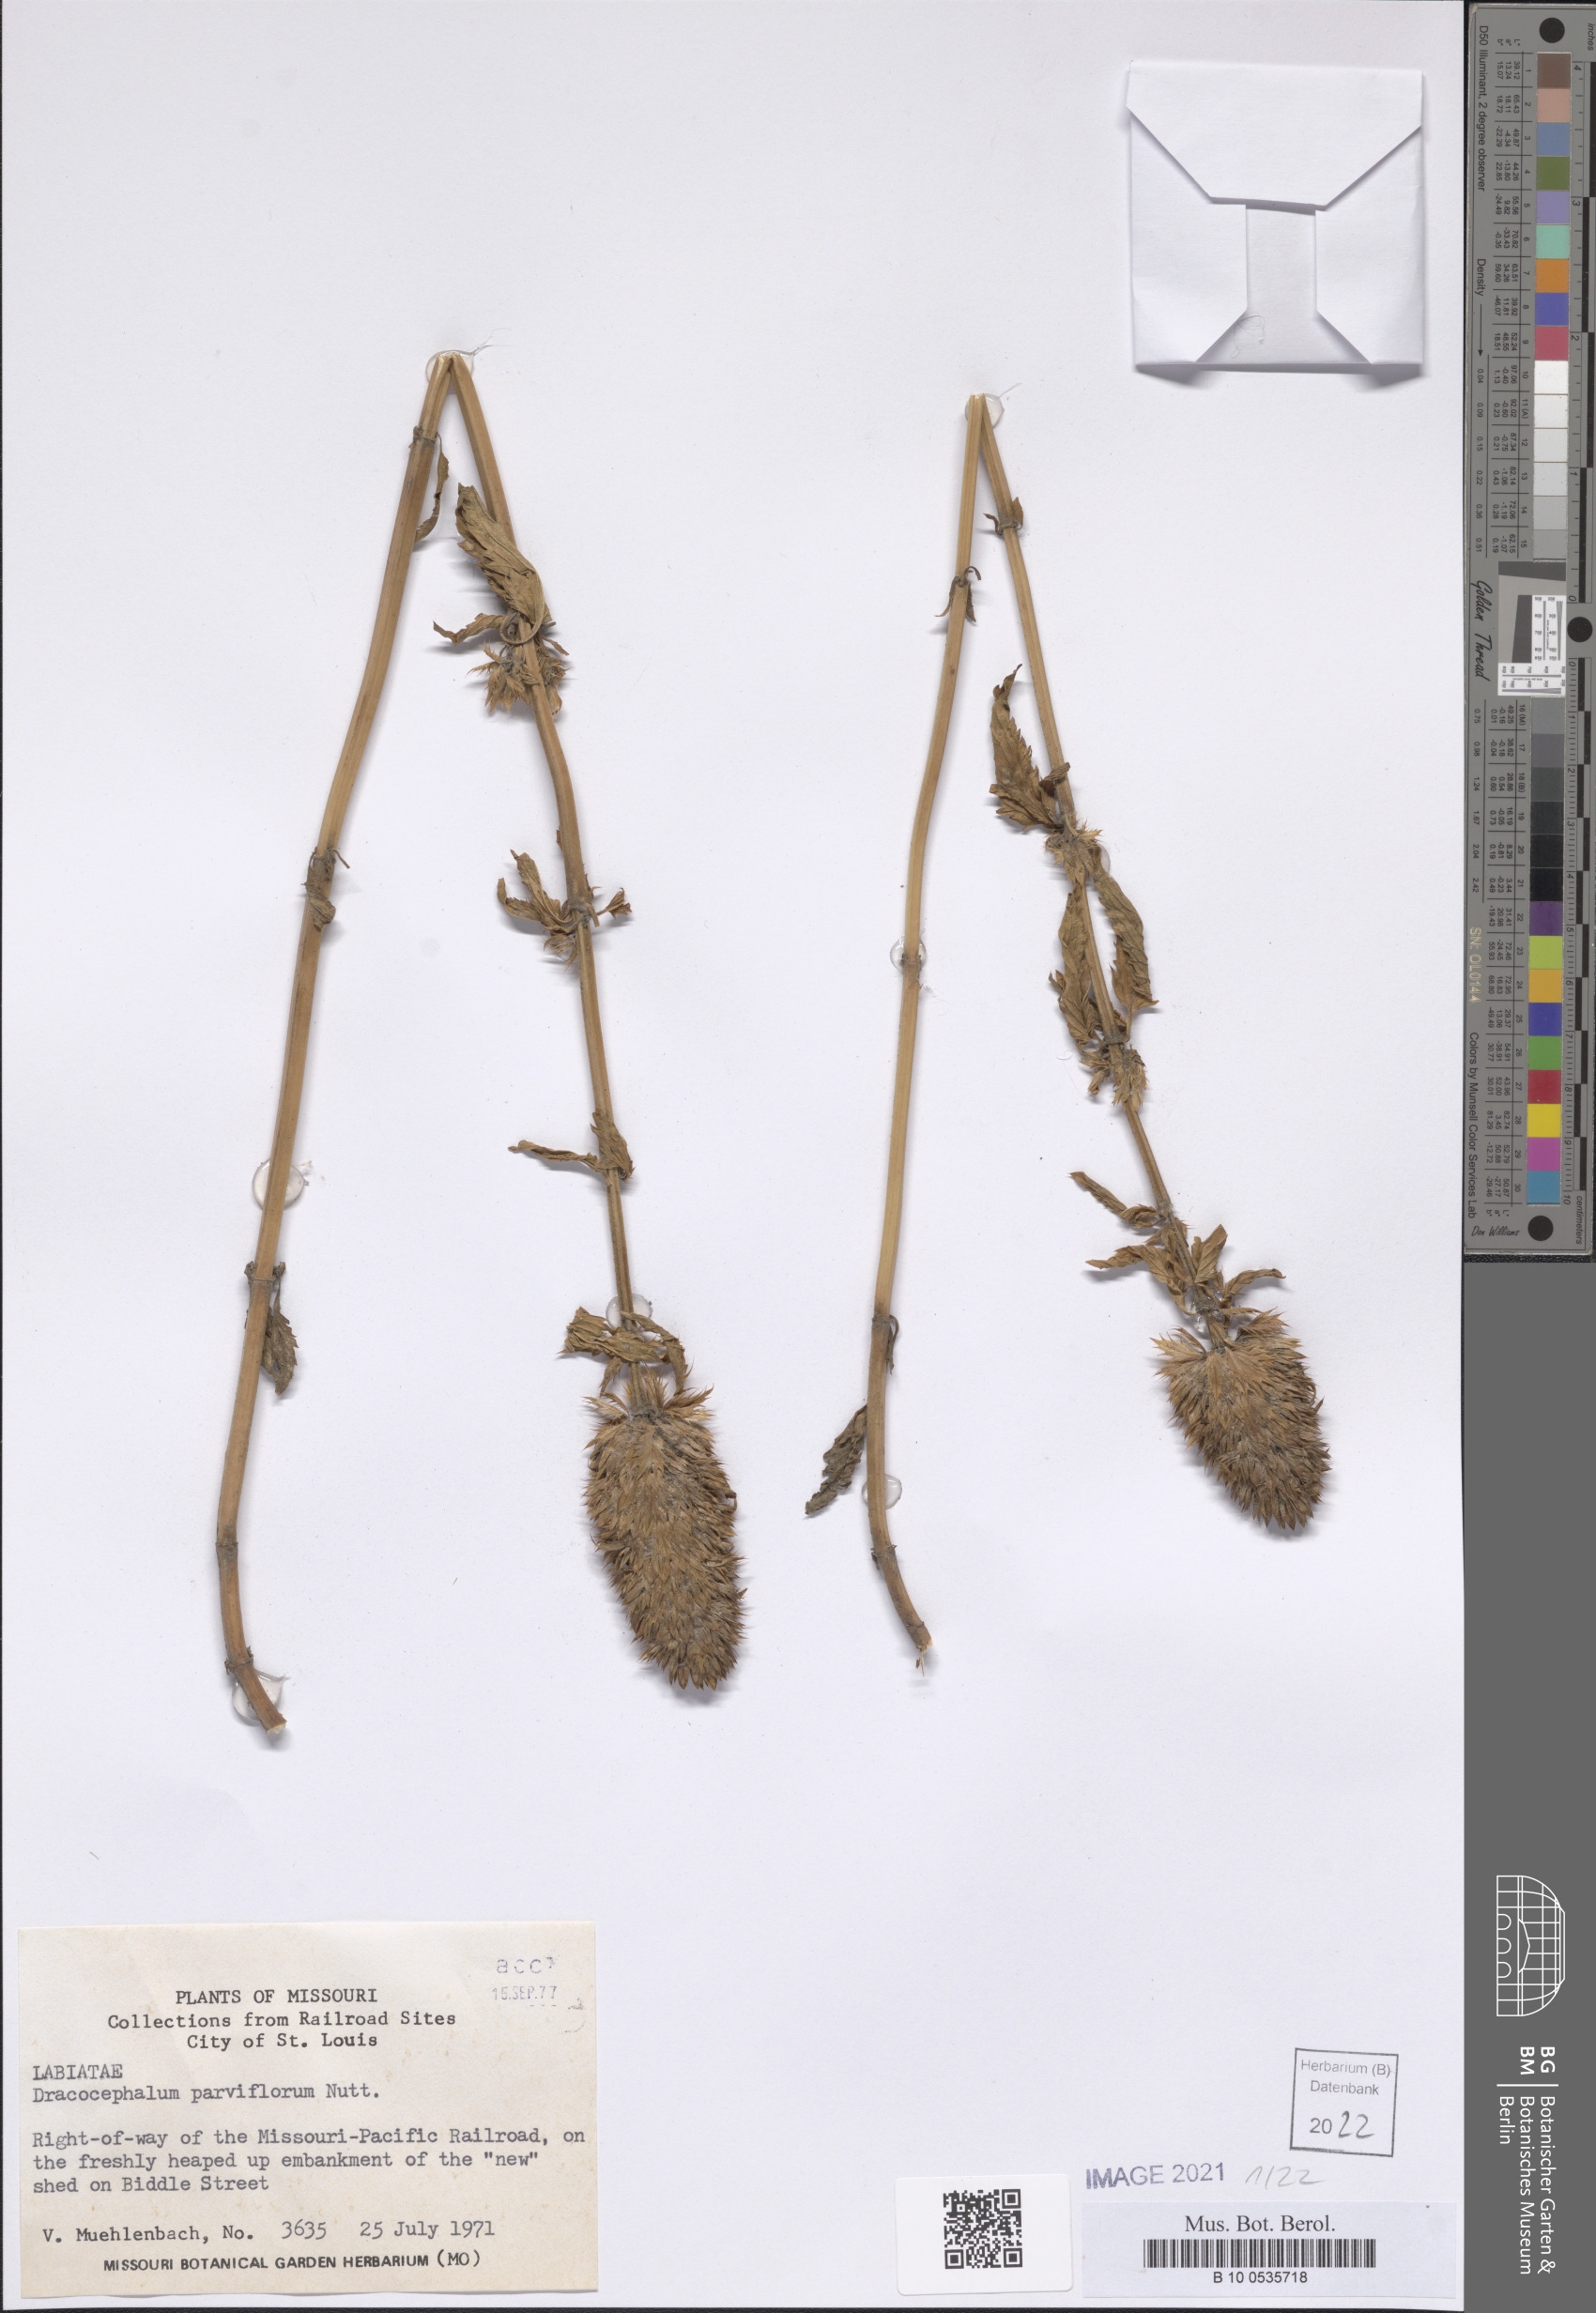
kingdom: Plantae
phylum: Tracheophyta
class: Magnoliopsida
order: Lamiales
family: Lamiaceae
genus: Dracocephalum
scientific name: Dracocephalum parviflorum
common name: American dragonhead
